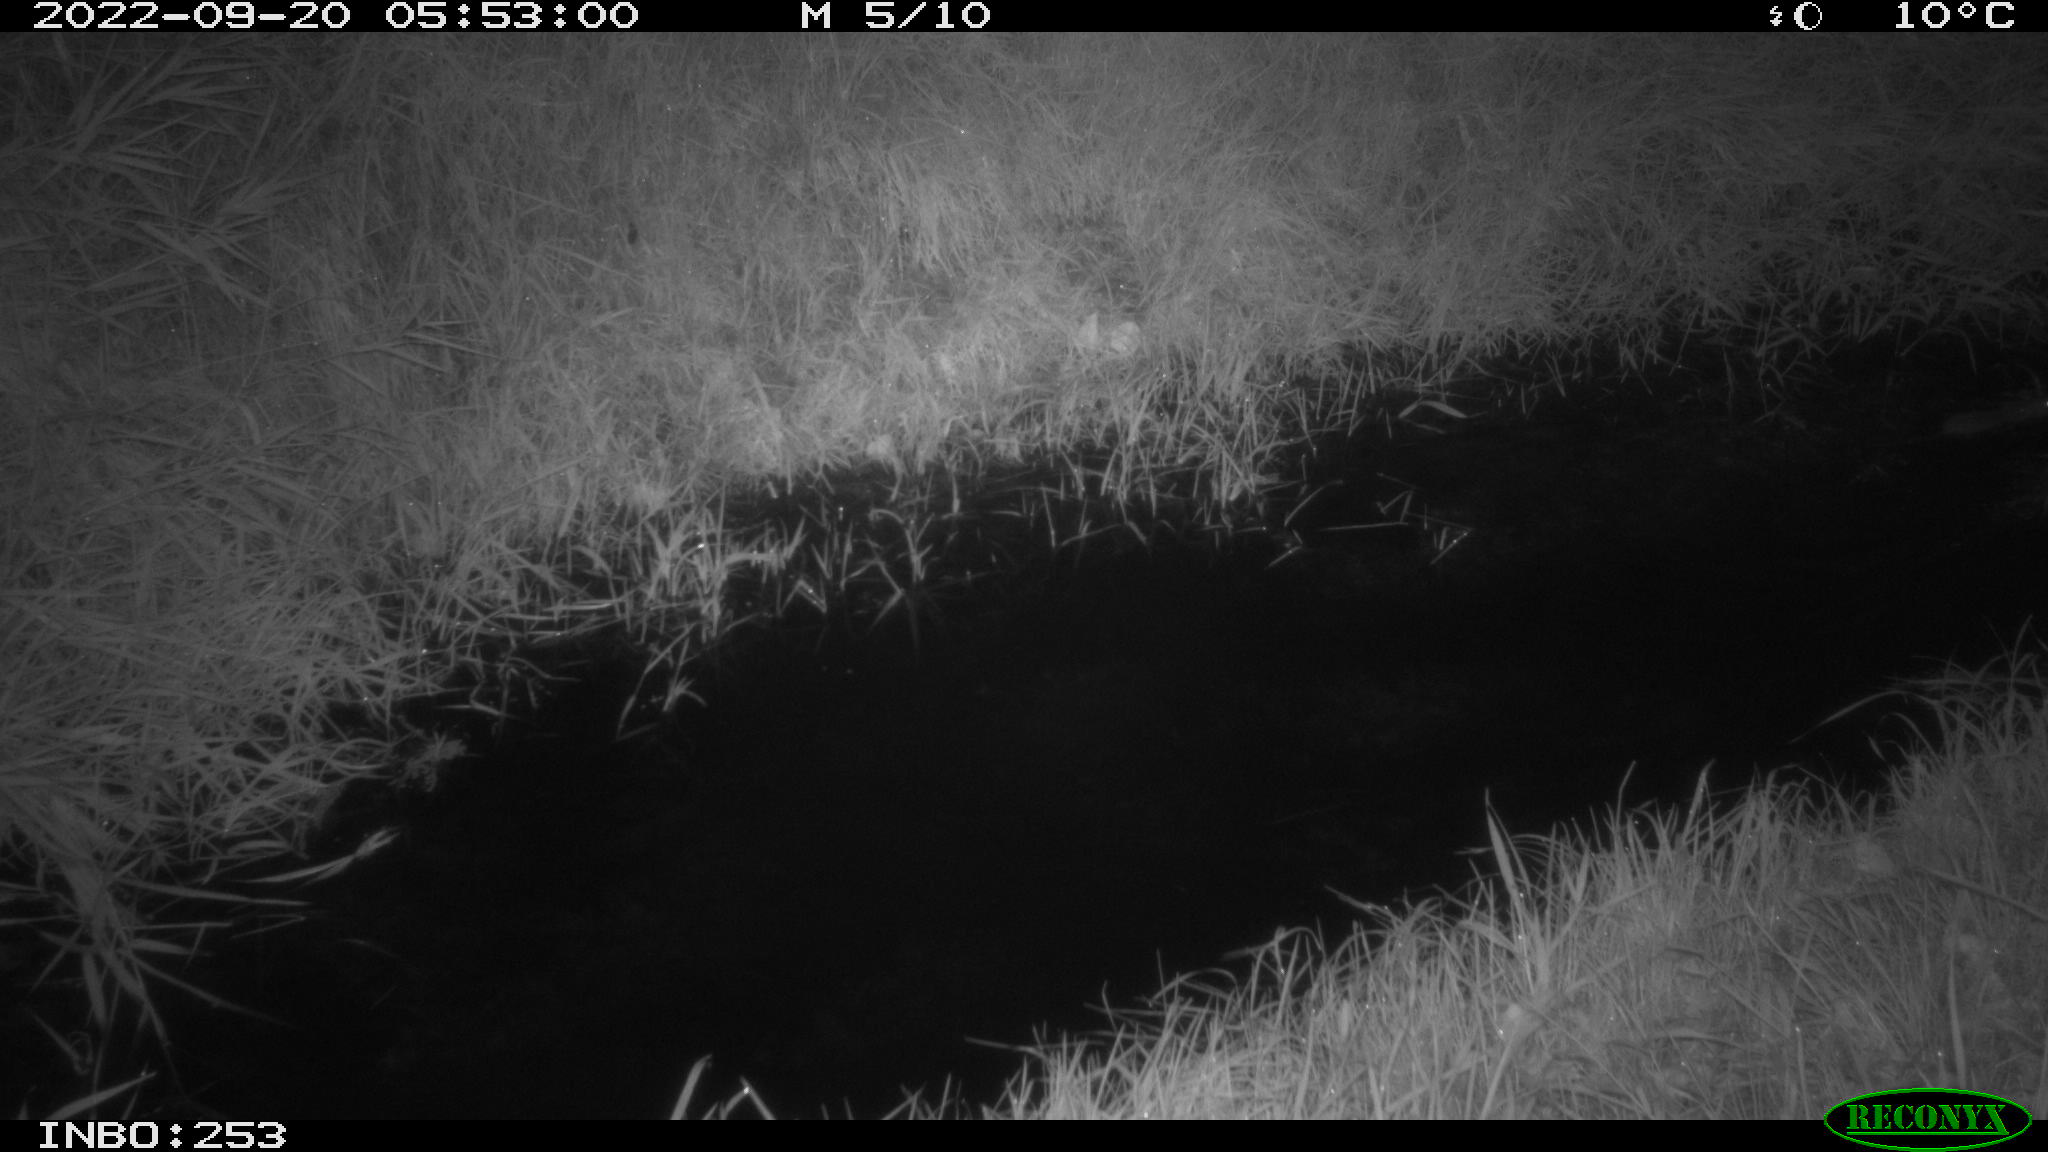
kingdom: Animalia
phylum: Chordata
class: Mammalia
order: Rodentia
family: Muridae
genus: Rattus
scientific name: Rattus norvegicus
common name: Brown rat
